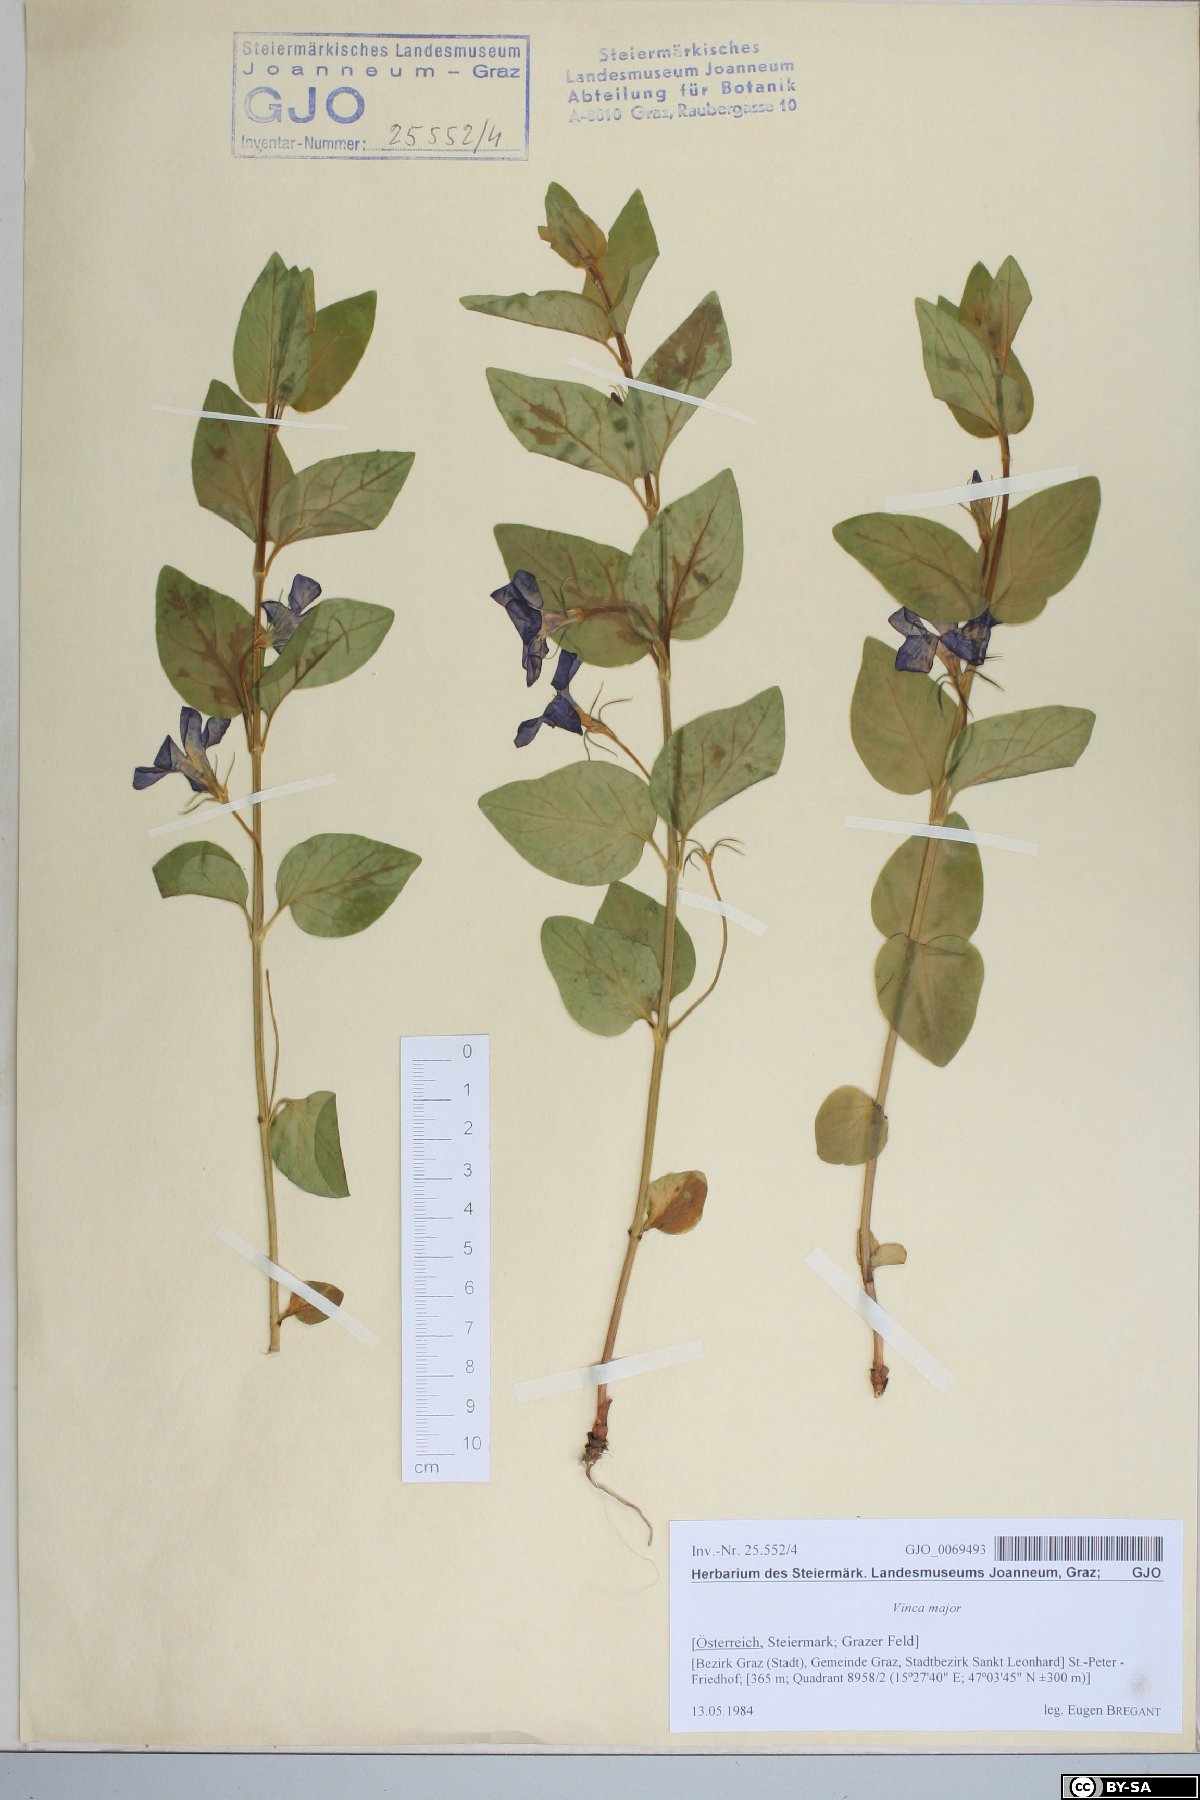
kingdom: Plantae
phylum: Tracheophyta
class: Magnoliopsida
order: Gentianales
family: Apocynaceae
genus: Vinca
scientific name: Vinca major
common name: Greater periwinkle
